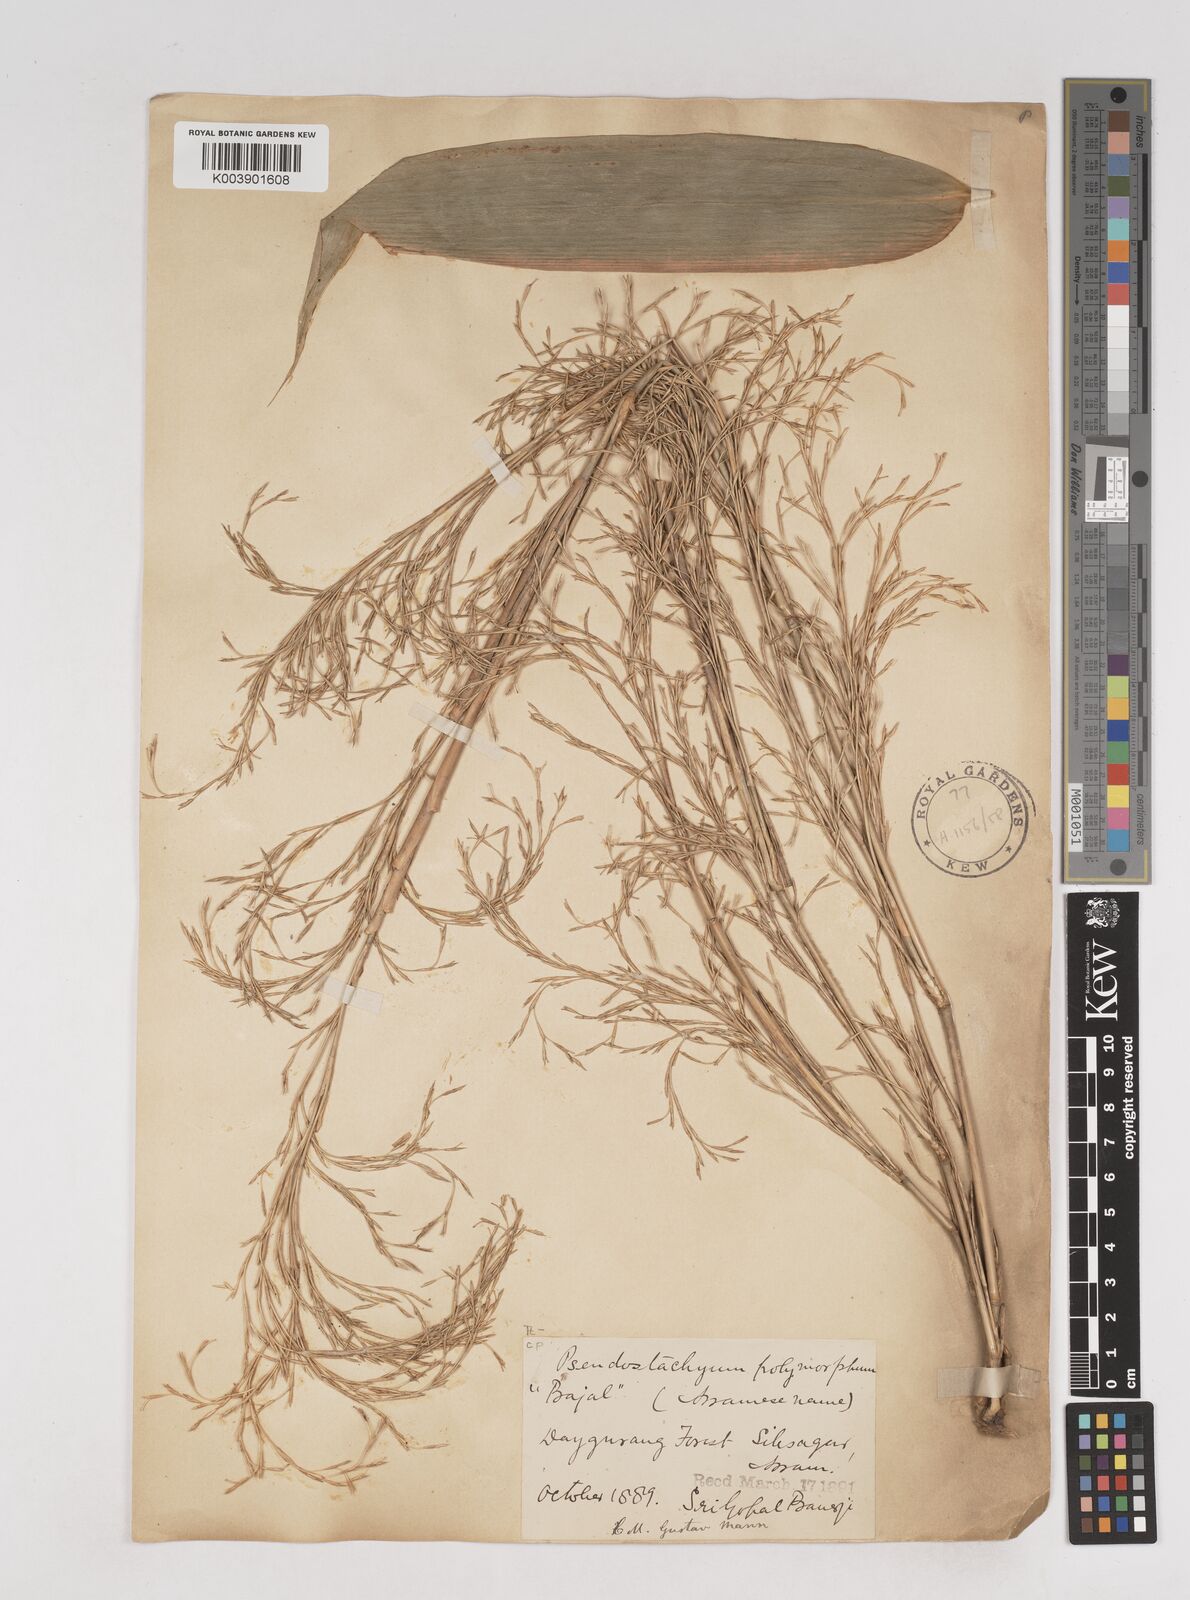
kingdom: Plantae
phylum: Tracheophyta
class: Liliopsida
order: Poales
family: Poaceae
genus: Pseudostachyum
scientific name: Pseudostachyum polymorphum
